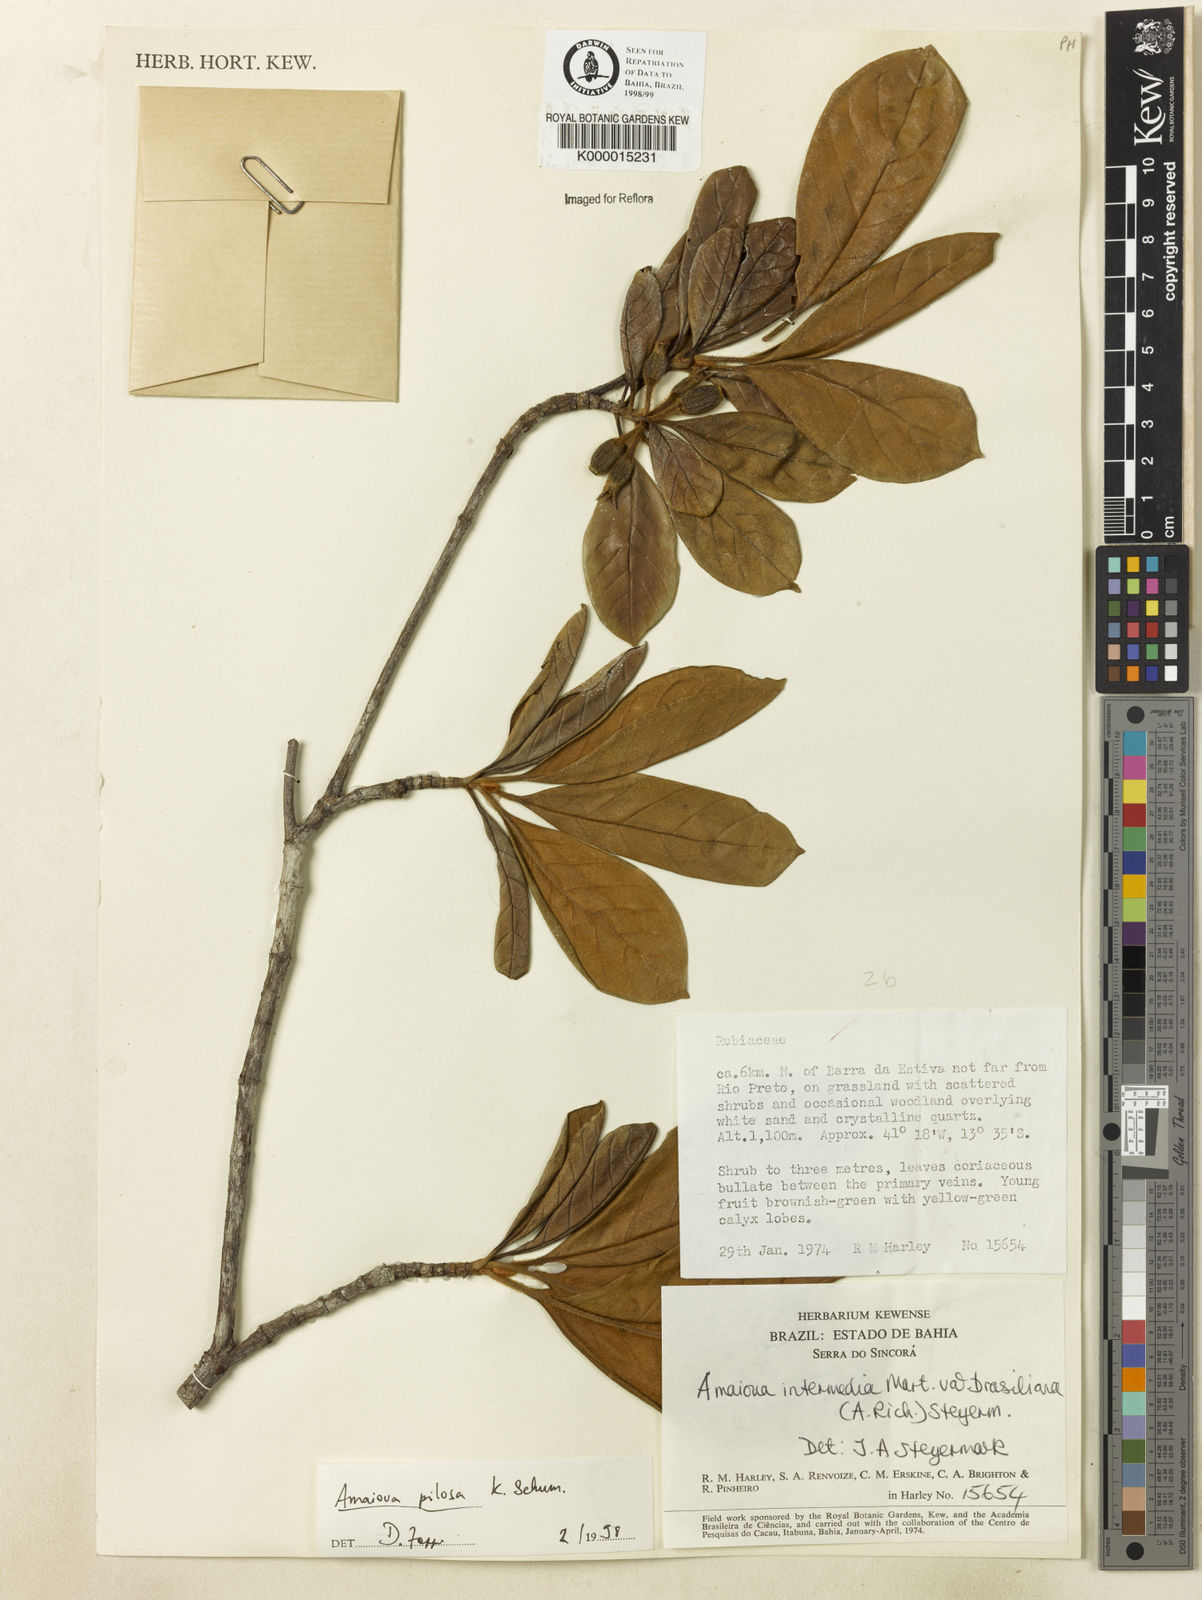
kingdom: Plantae
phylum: Tracheophyta
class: Magnoliopsida
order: Gentianales
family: Rubiaceae
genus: Amaioua
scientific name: Amaioua pilosa
